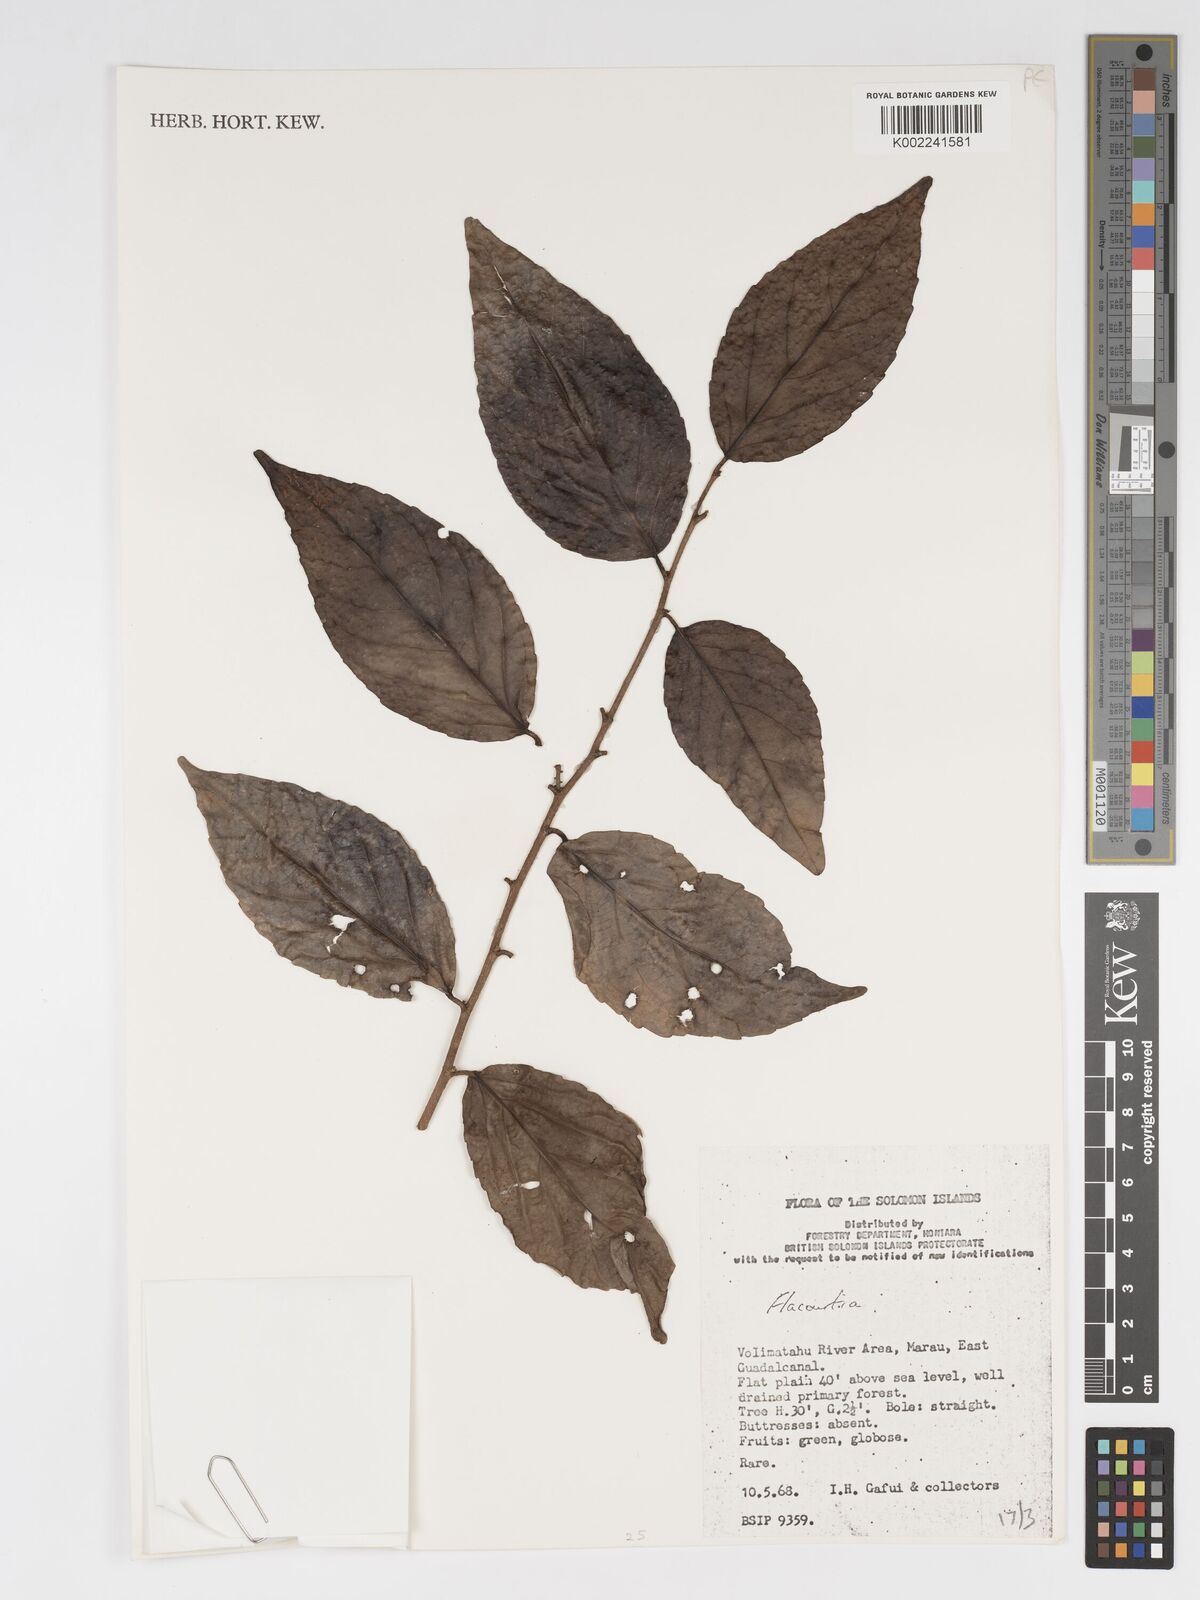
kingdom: Plantae
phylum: Tracheophyta
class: Magnoliopsida
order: Malpighiales
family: Salicaceae
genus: Flacourtia
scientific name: Flacourtia
